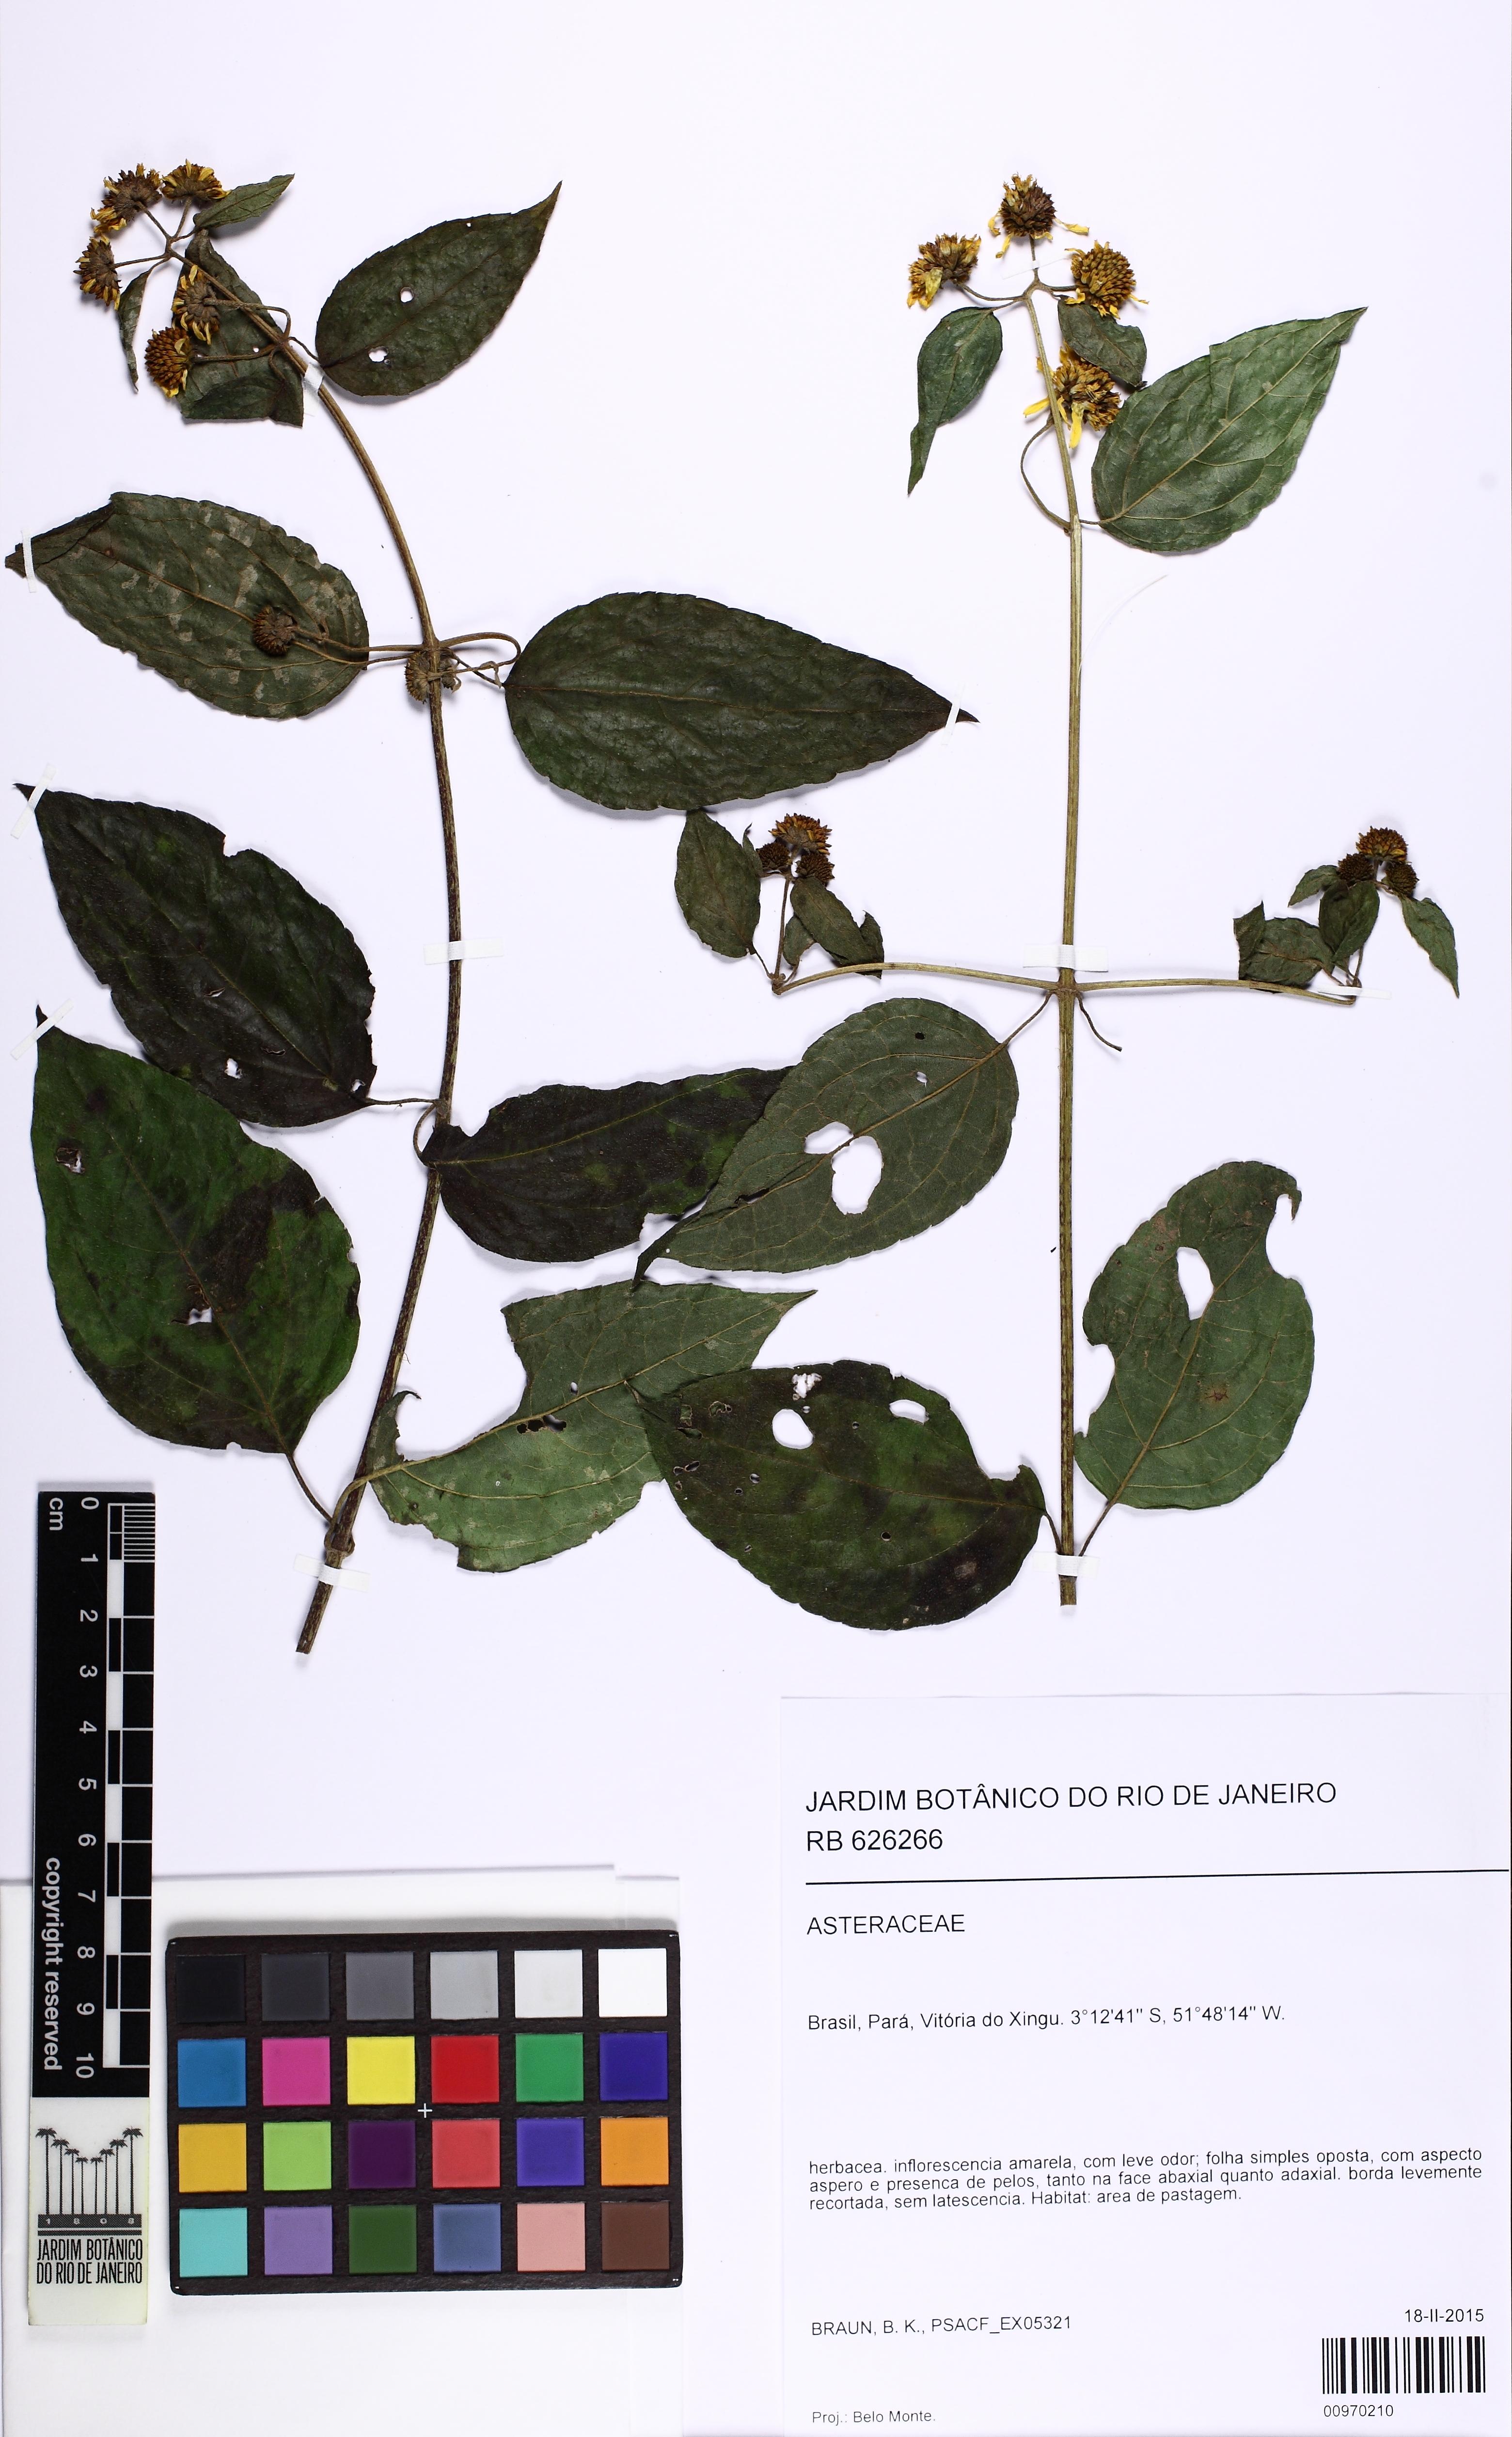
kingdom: Plantae
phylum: Tracheophyta
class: Magnoliopsida
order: Asterales
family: Asteraceae
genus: Tilesia
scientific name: Tilesia baccata
